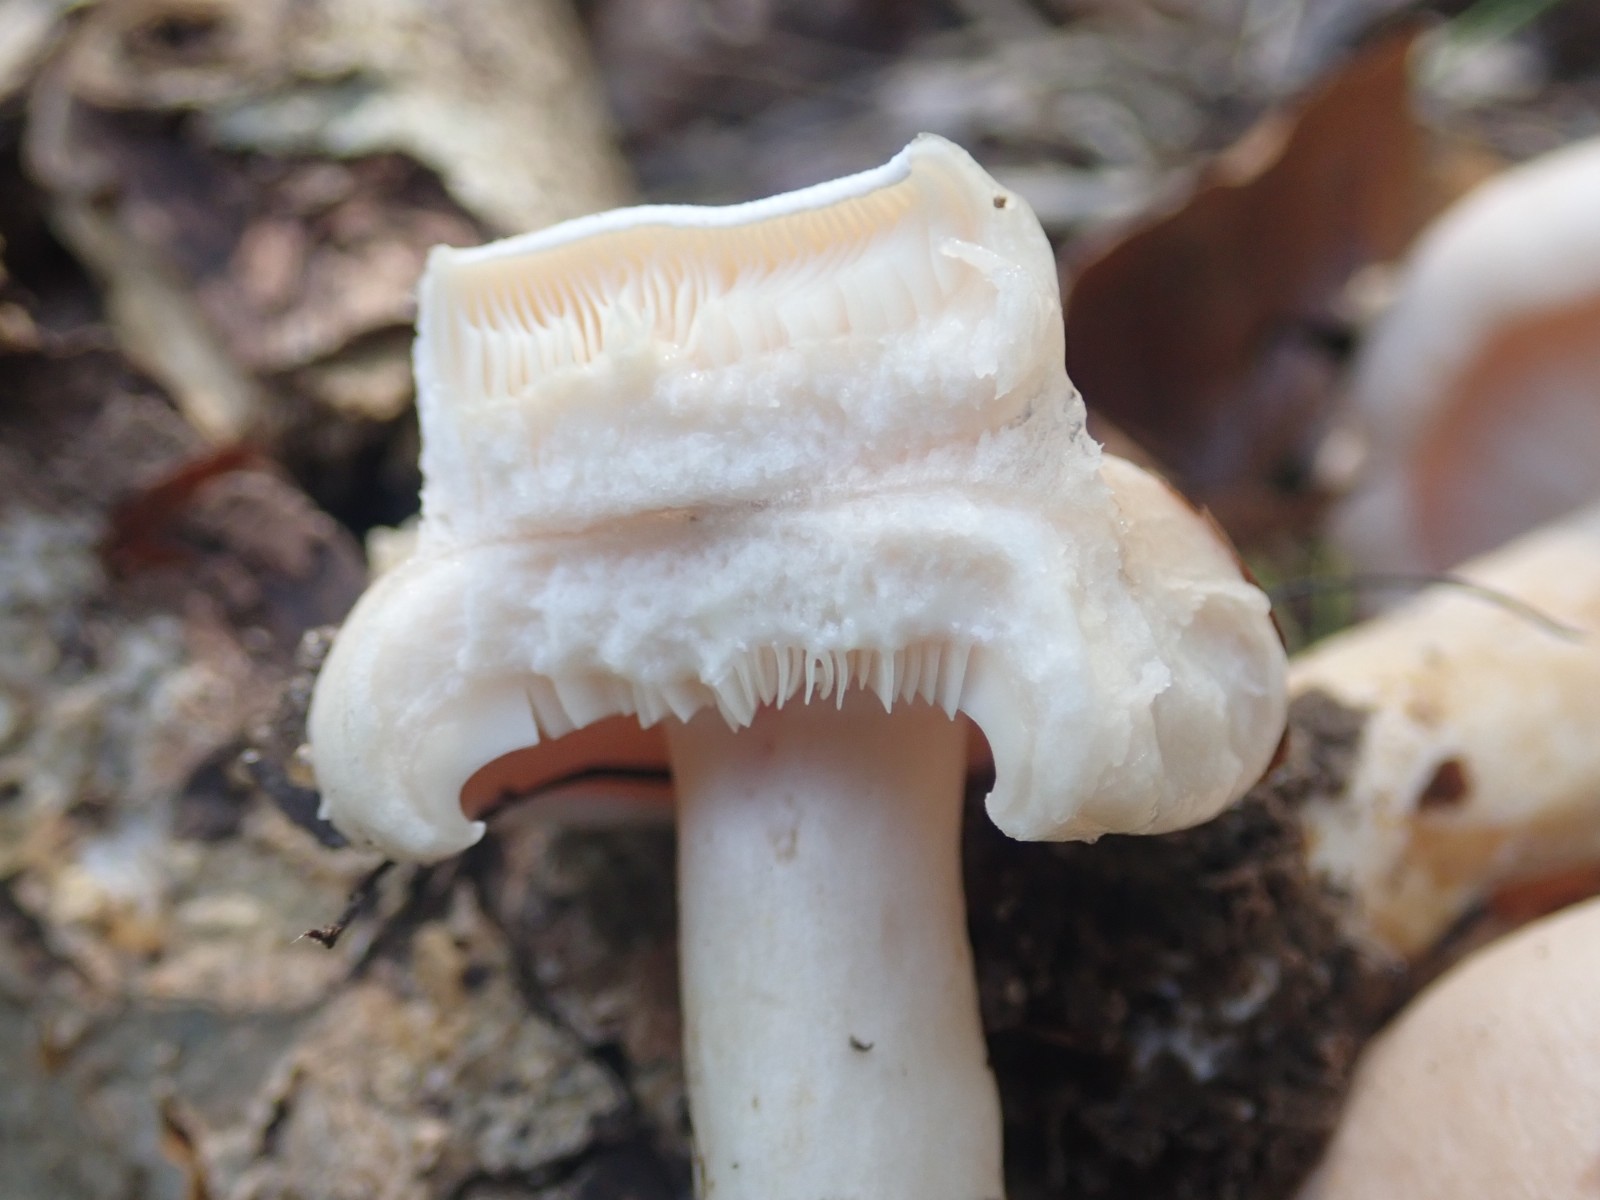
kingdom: Fungi
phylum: Basidiomycota
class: Agaricomycetes
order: Russulales
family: Russulaceae
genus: Lactarius
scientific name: Lactarius pallidus
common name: bleg mælkehat
